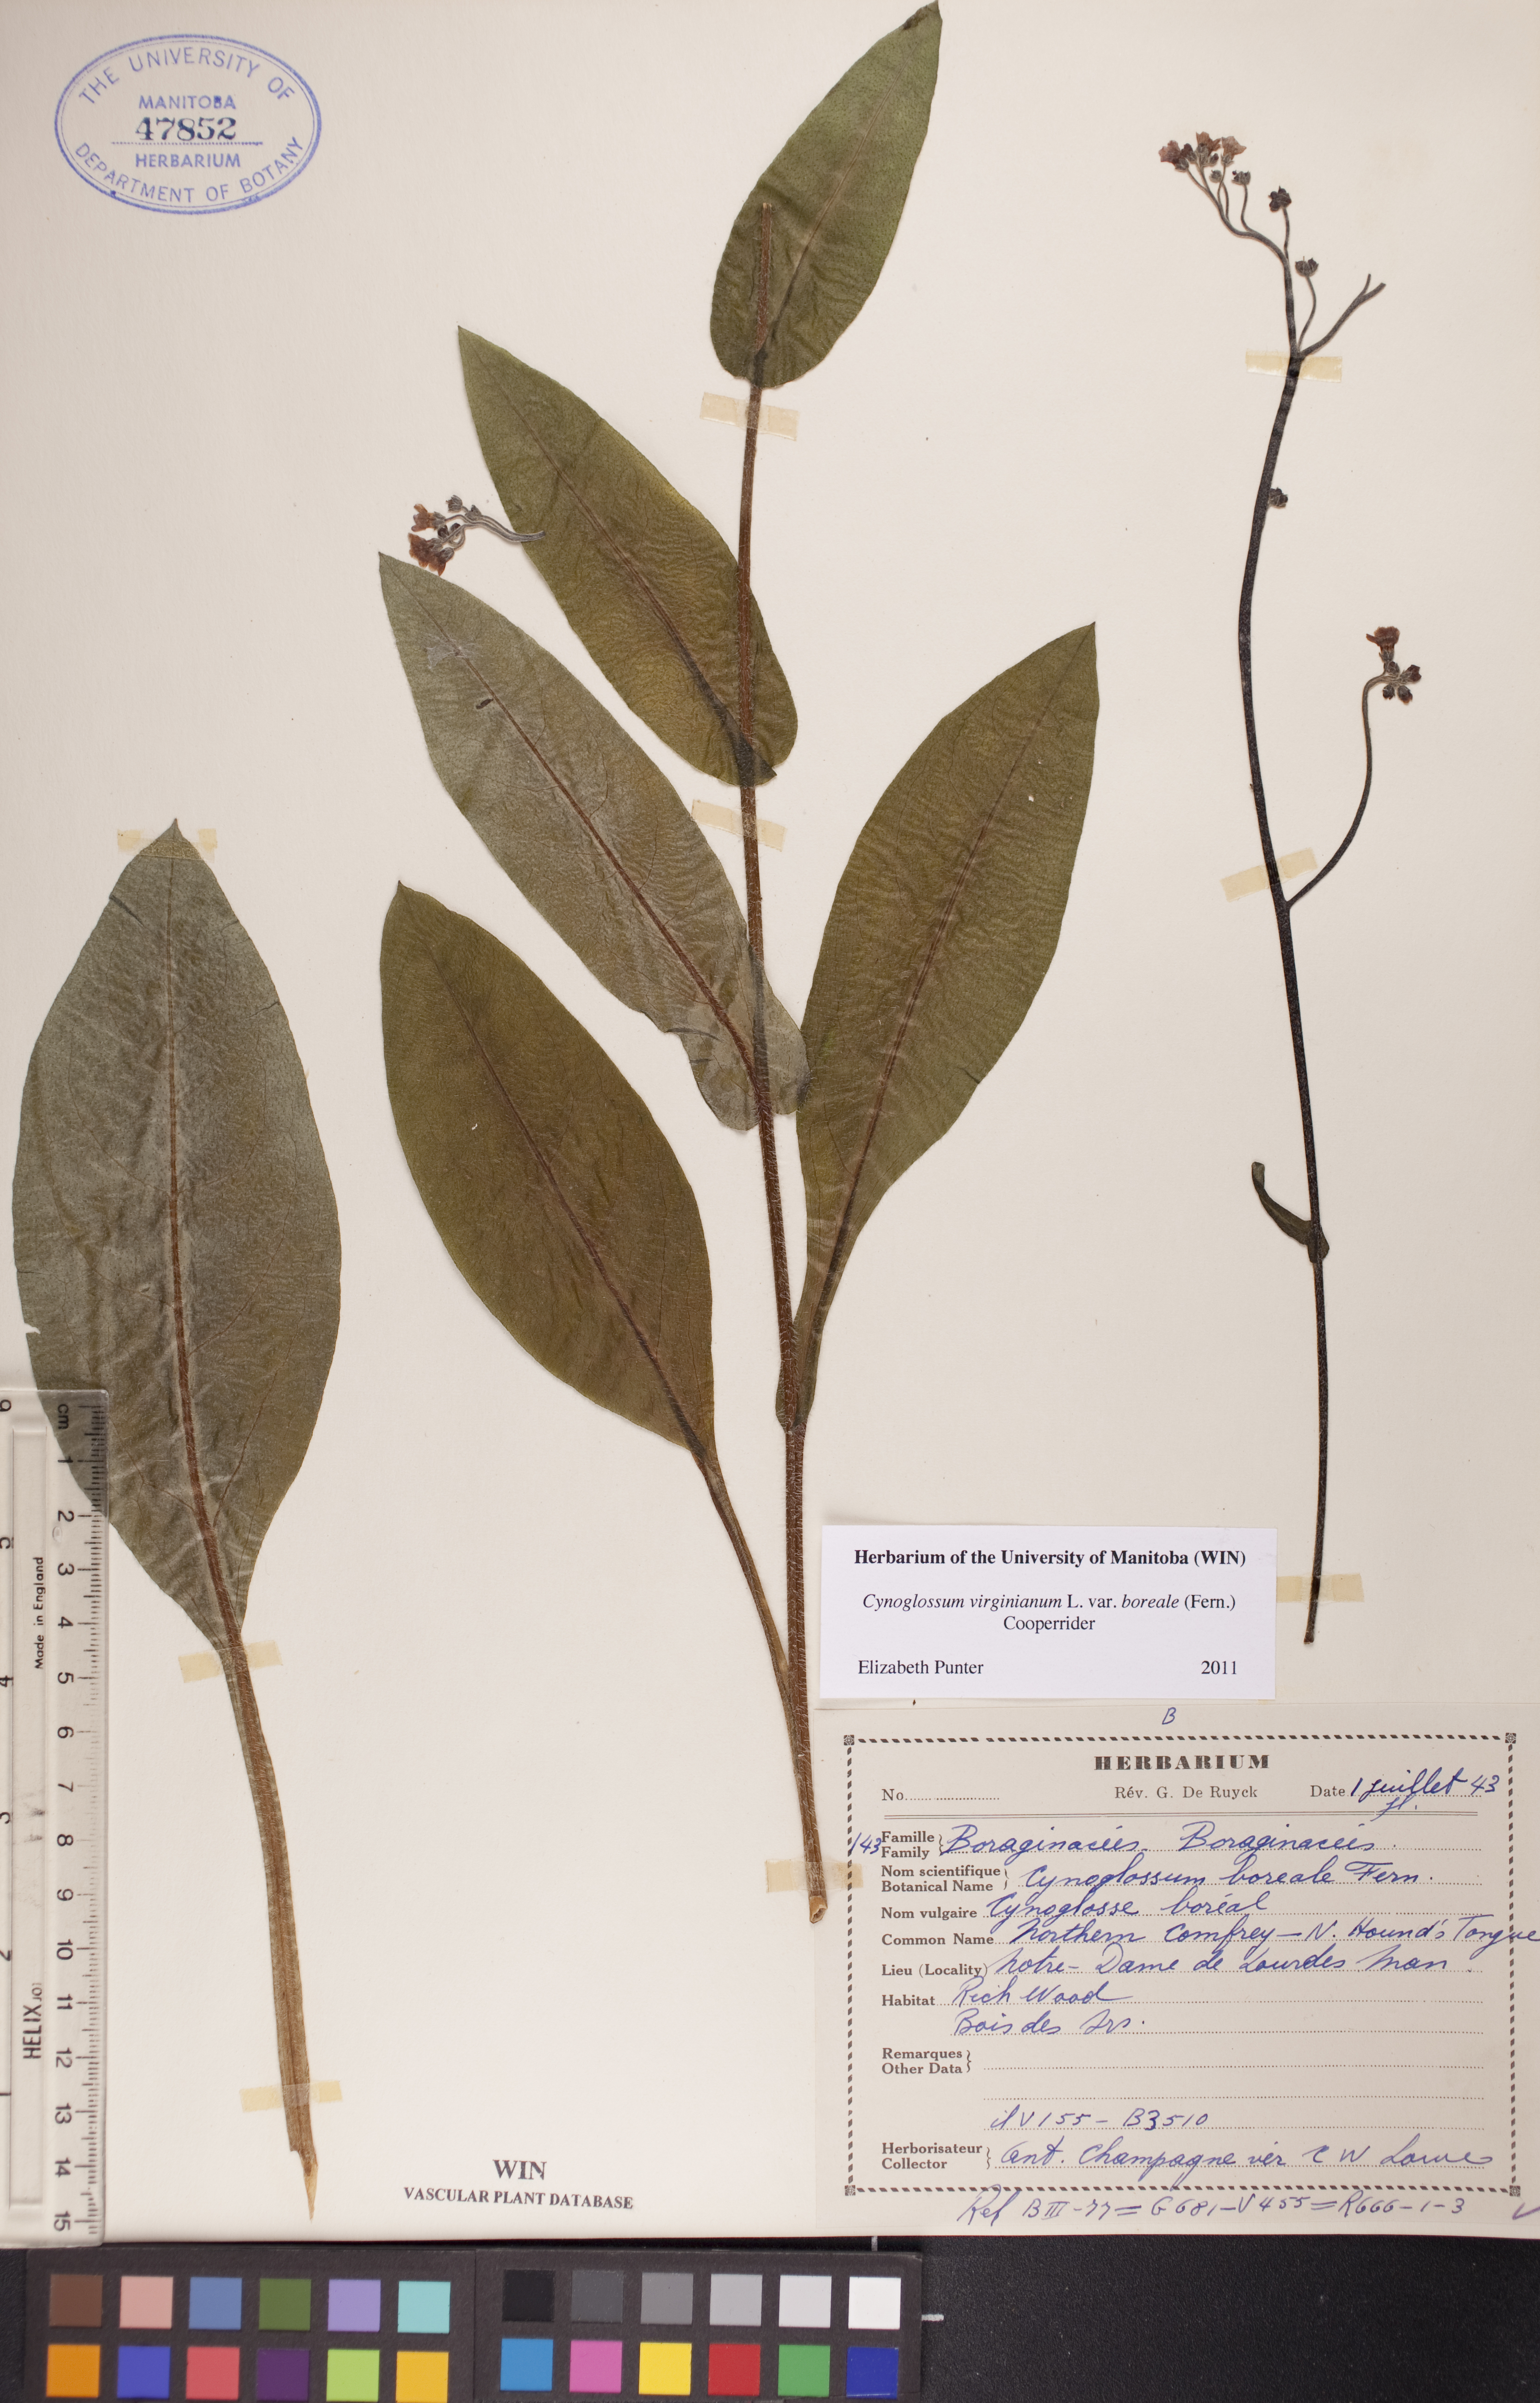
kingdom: Plantae
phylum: Tracheophyta
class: Magnoliopsida
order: Boraginales
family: Boraginaceae
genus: Andersonglossum
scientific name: Andersonglossum boreale
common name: Northern hound's-tongue
